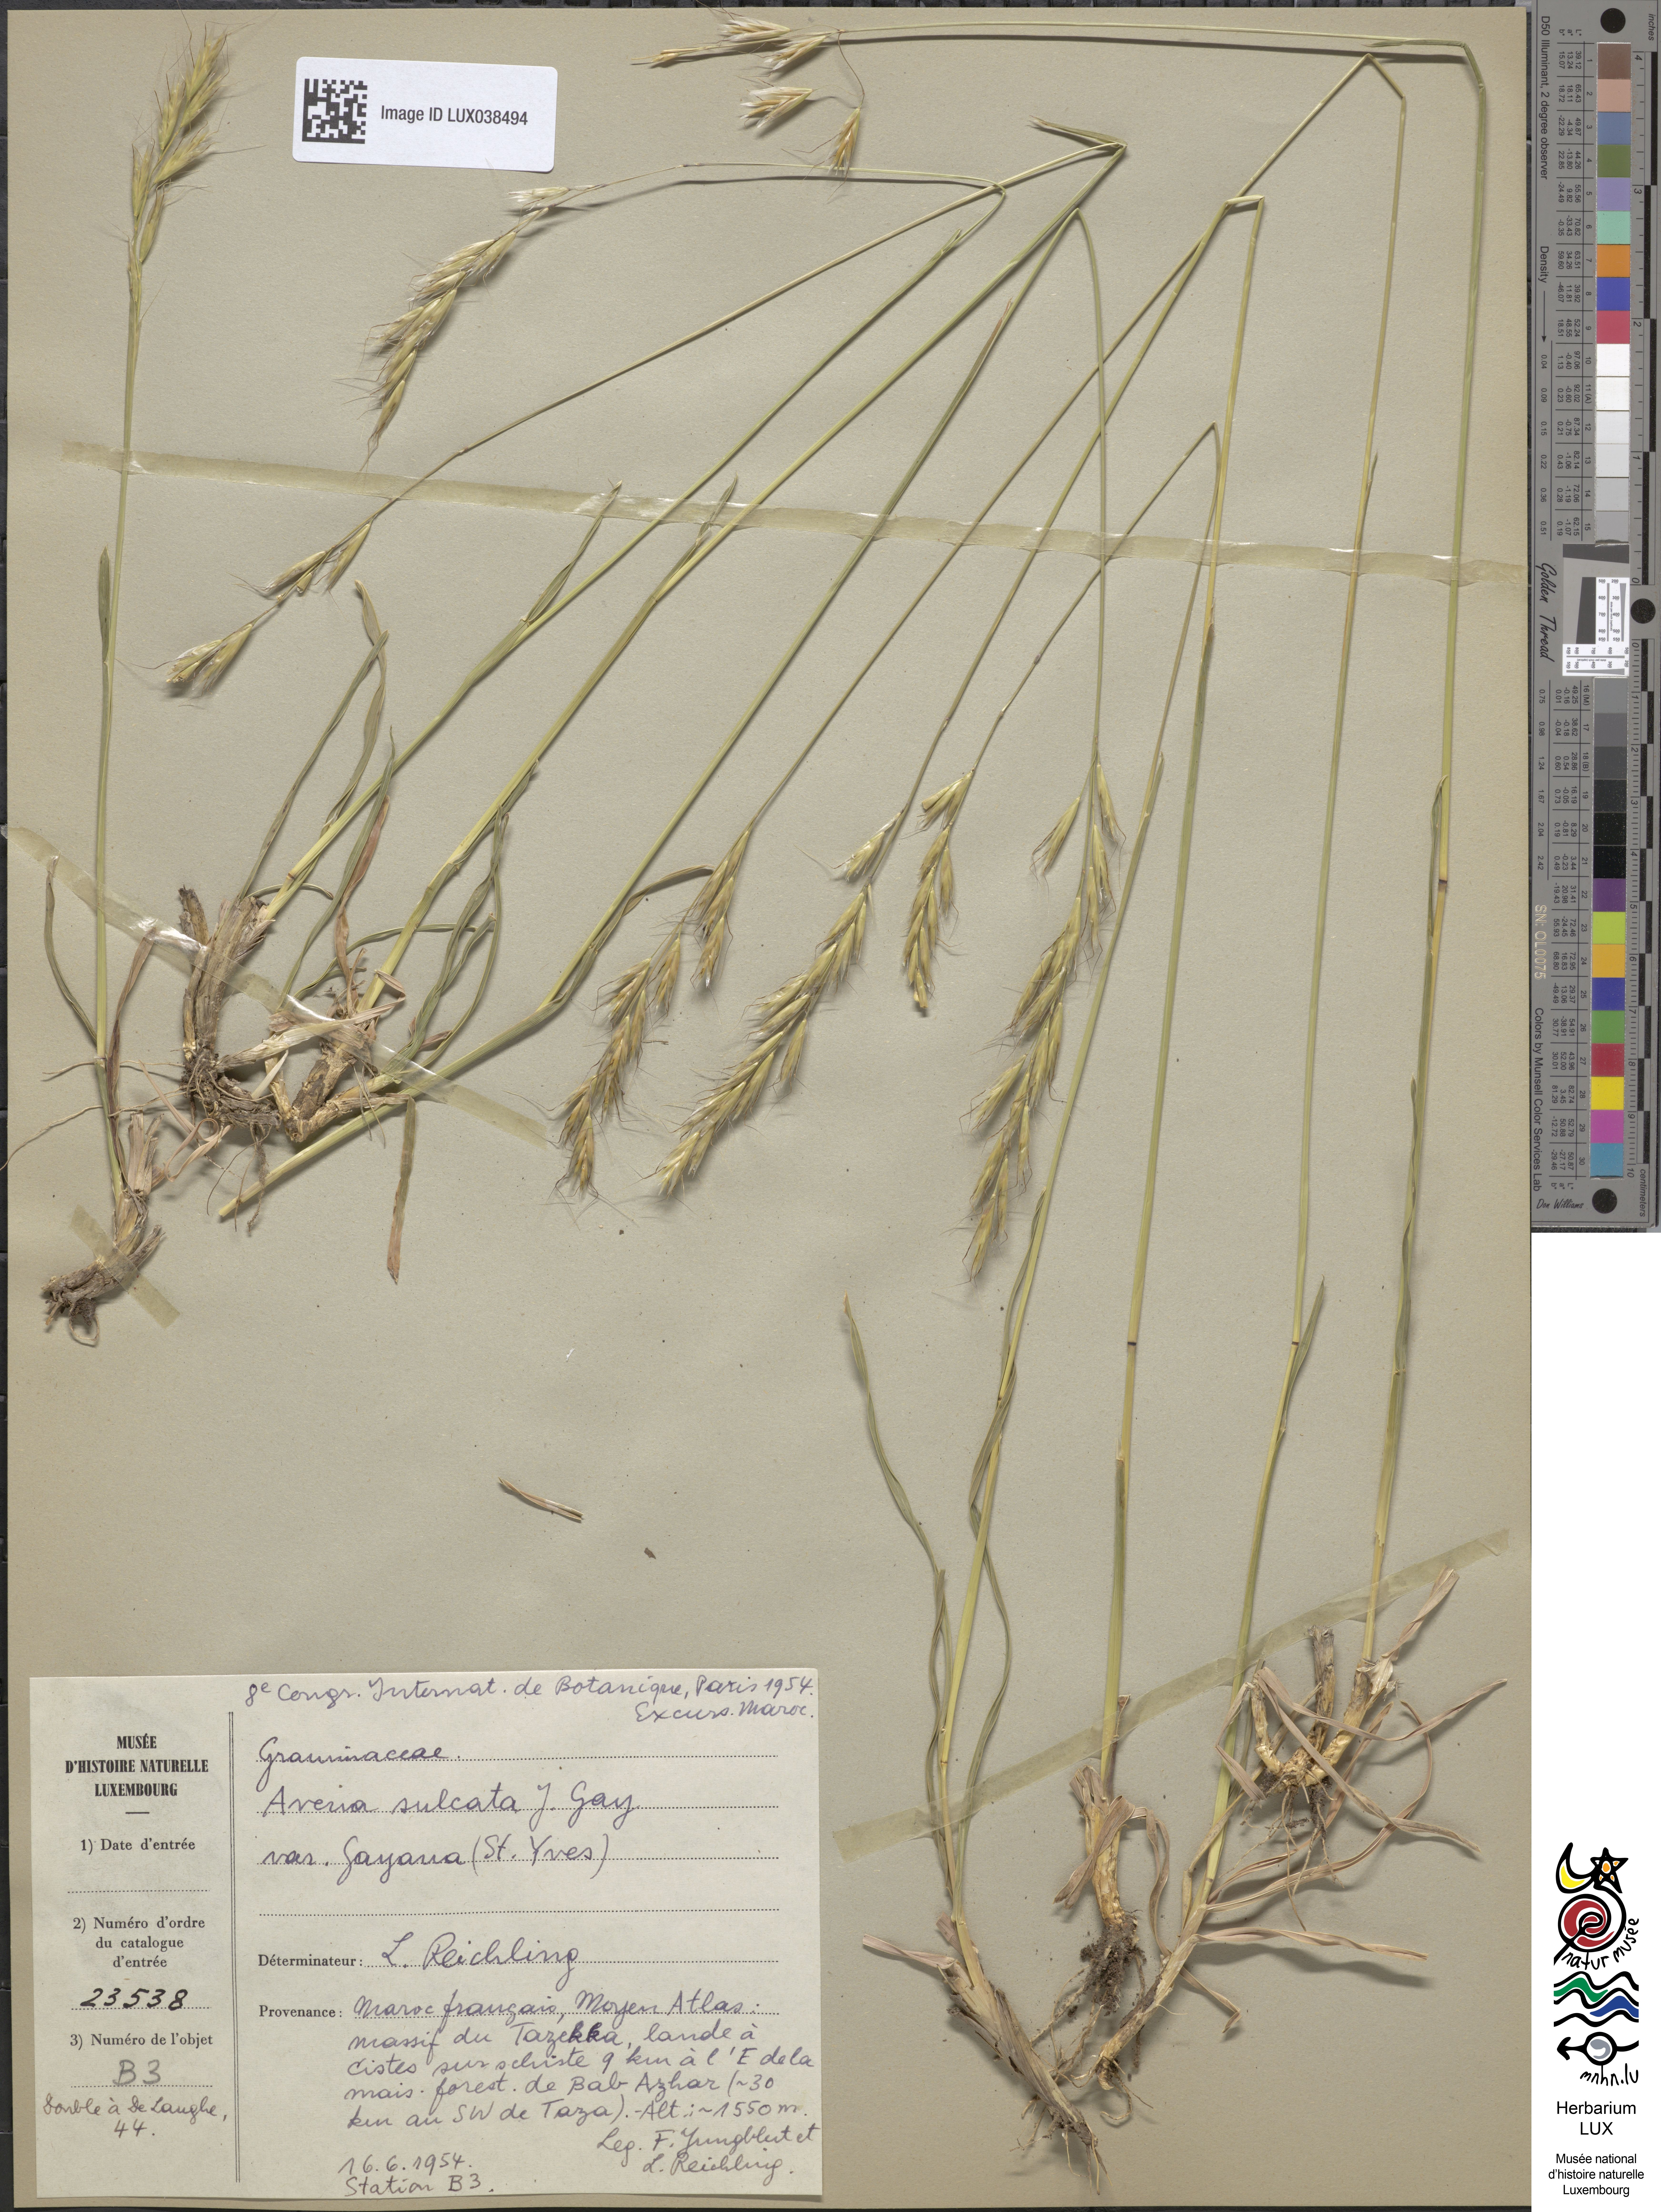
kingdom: Plantae
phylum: Tracheophyta
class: Liliopsida
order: Poales
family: Poaceae
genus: Helictochloa
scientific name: Helictochloa marginata
